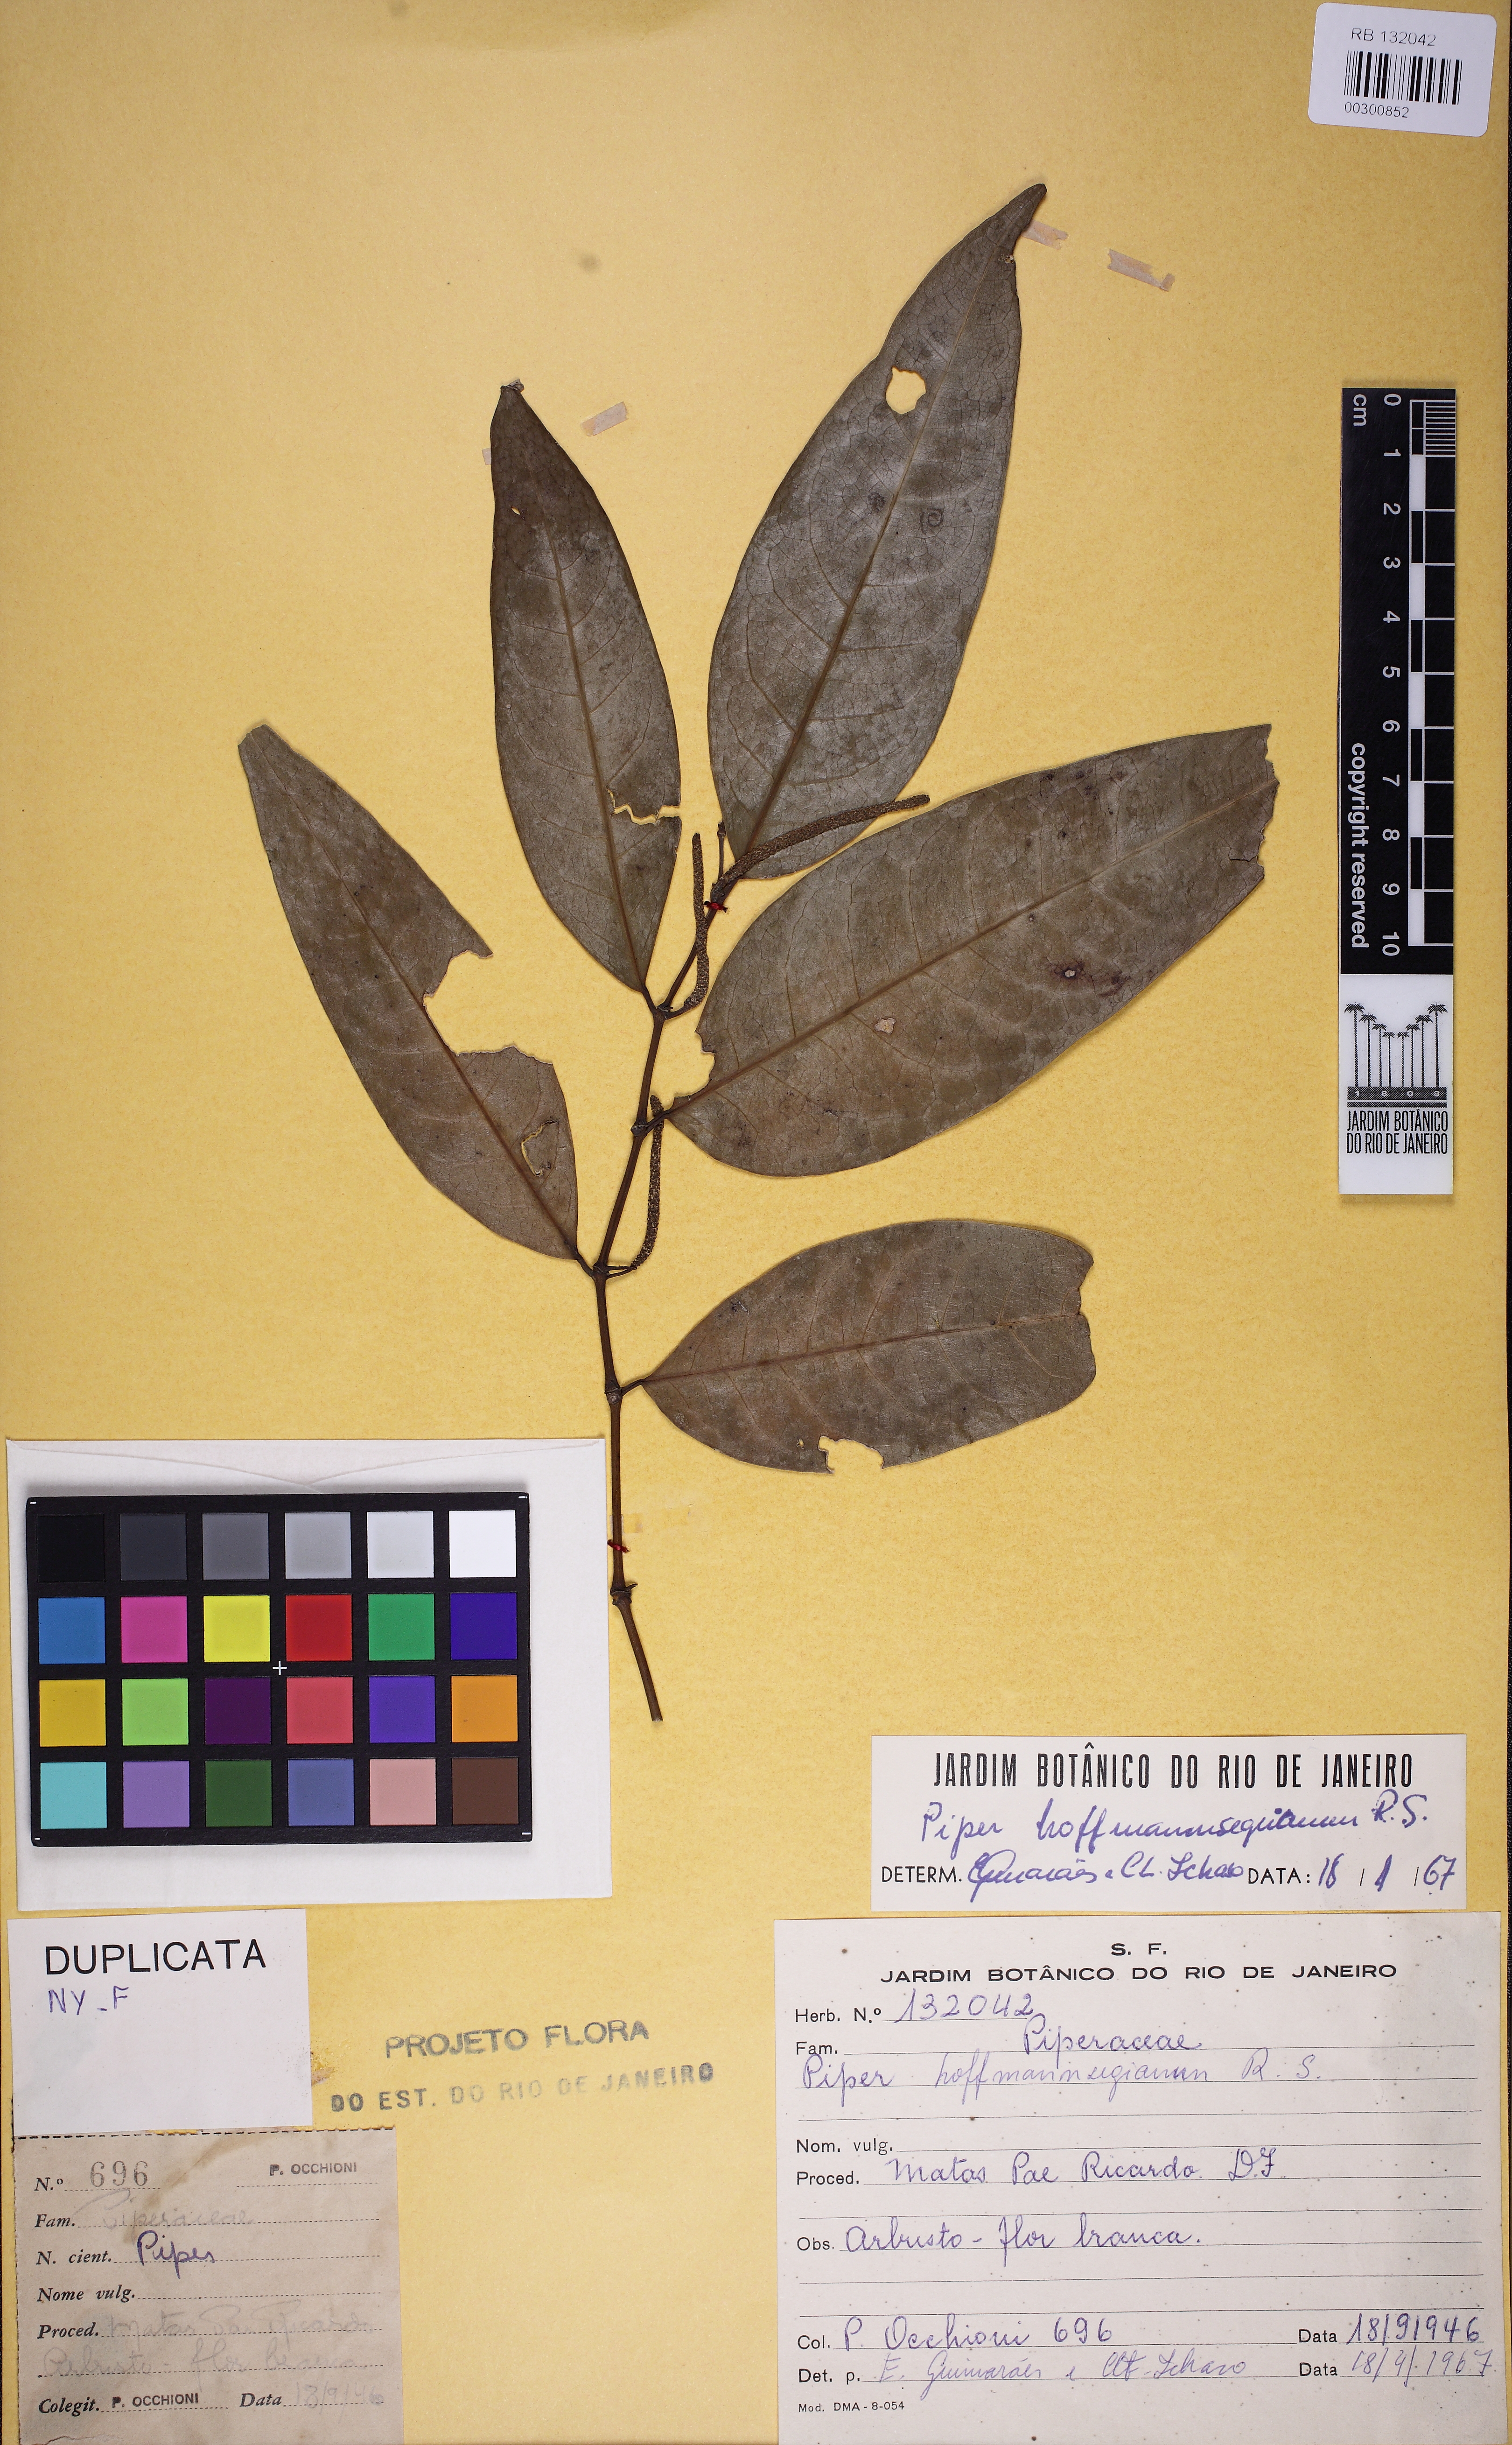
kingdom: Plantae
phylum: Tracheophyta
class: Magnoliopsida
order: Piperales
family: Piperaceae
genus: Piper
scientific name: Piper hoffmannseggianum
